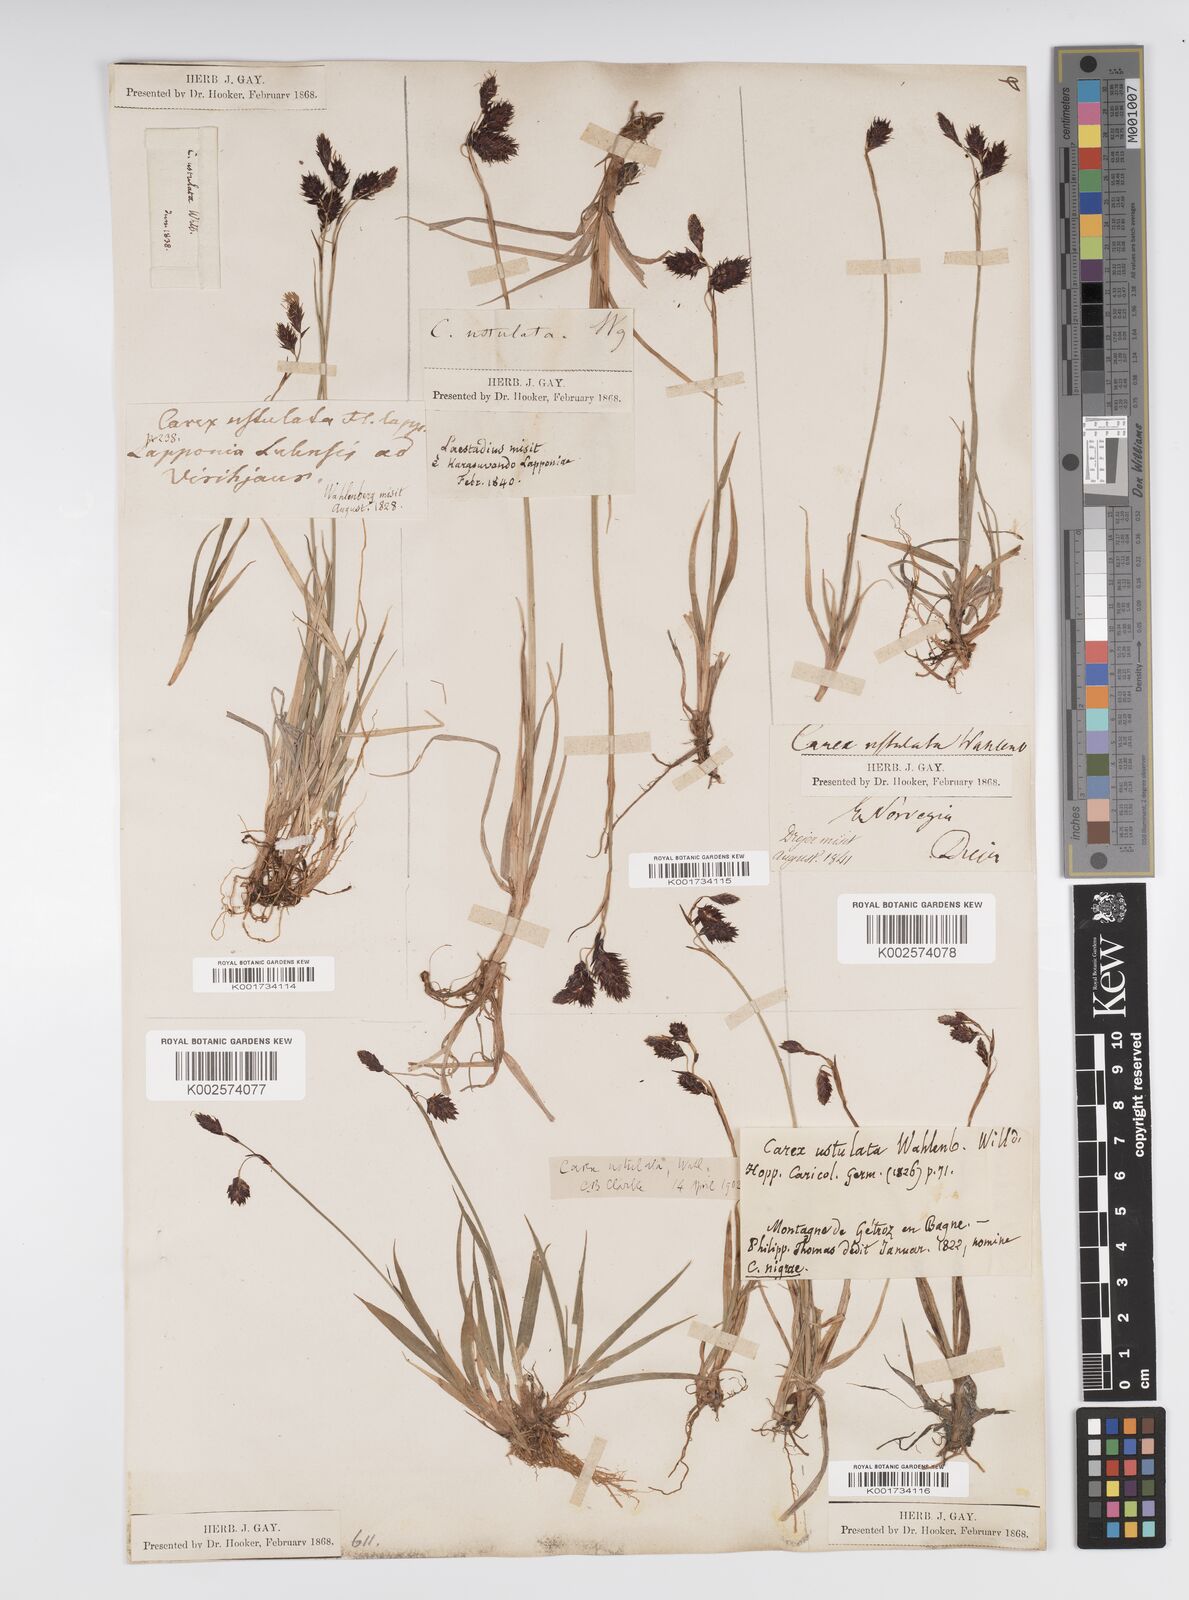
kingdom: Plantae
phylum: Tracheophyta
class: Liliopsida
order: Poales
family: Cyperaceae
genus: Carex
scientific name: Carex atrofusca
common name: Scorched alpine-sedge
